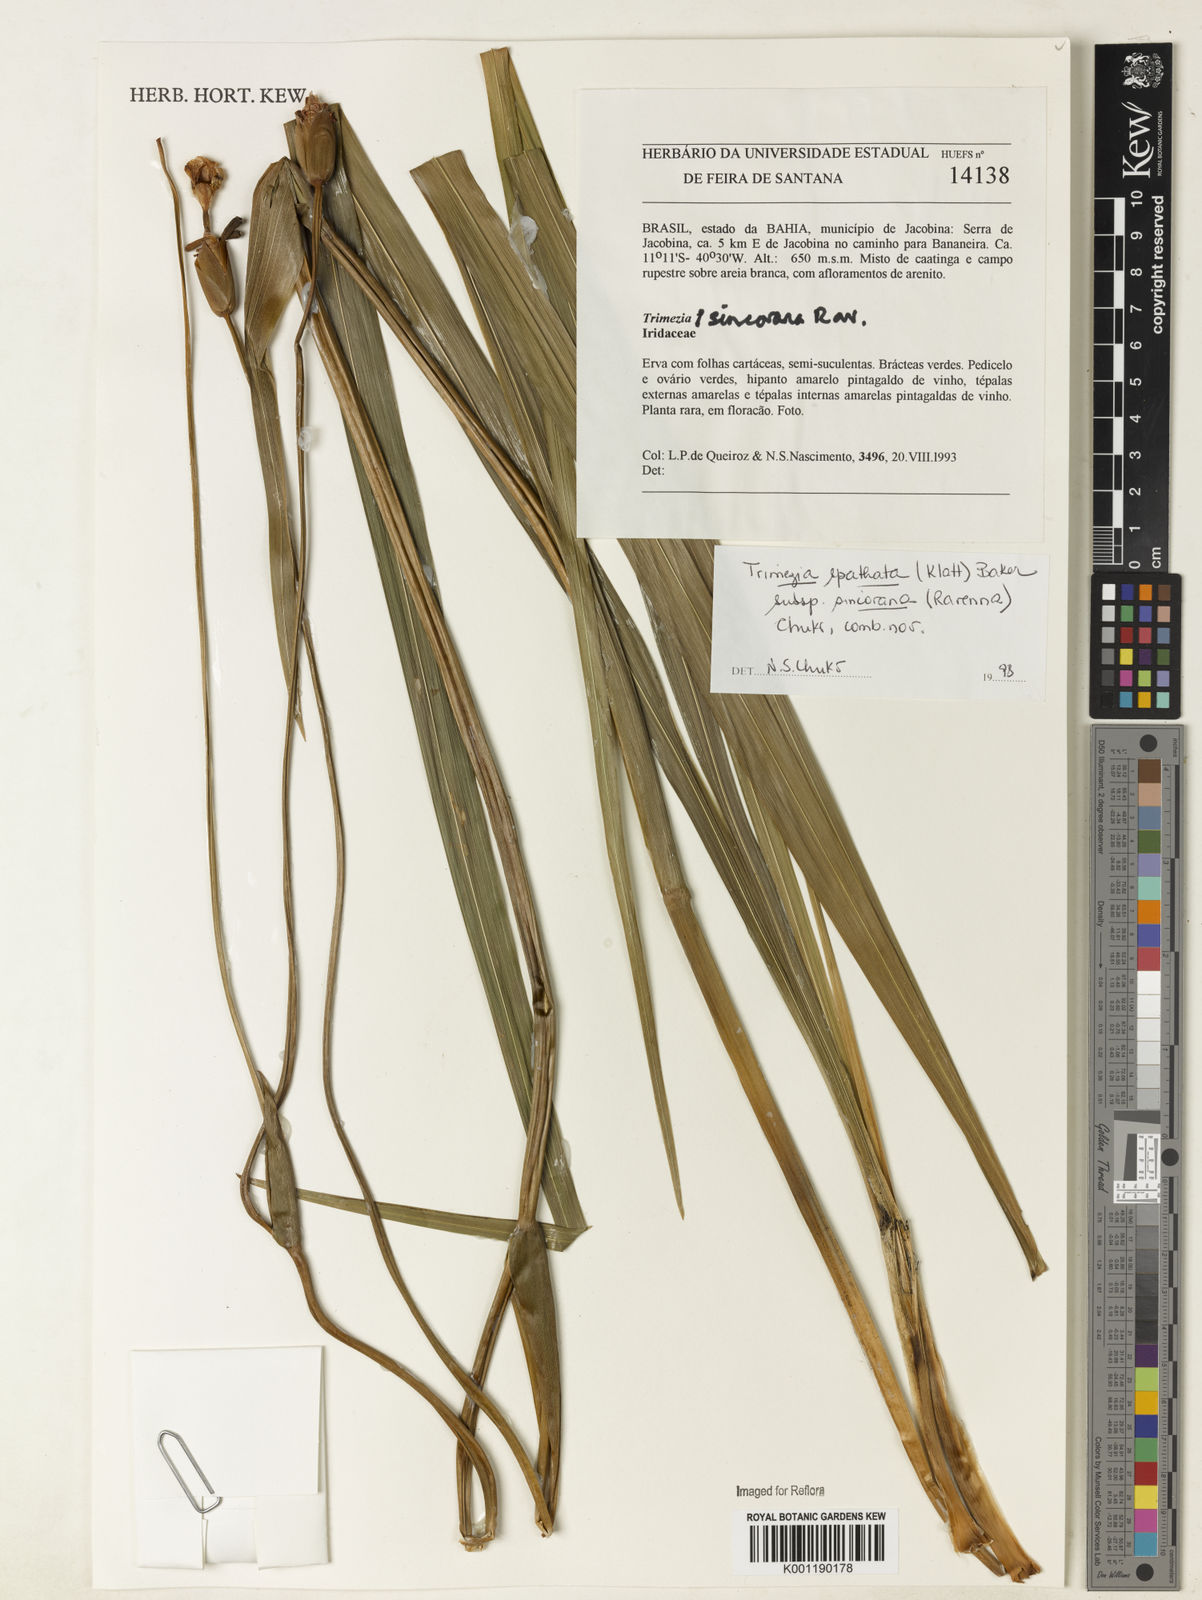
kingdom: Plantae
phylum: Tracheophyta
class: Liliopsida
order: Asparagales
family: Iridaceae
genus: Trimezia
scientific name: Trimezia spathata
